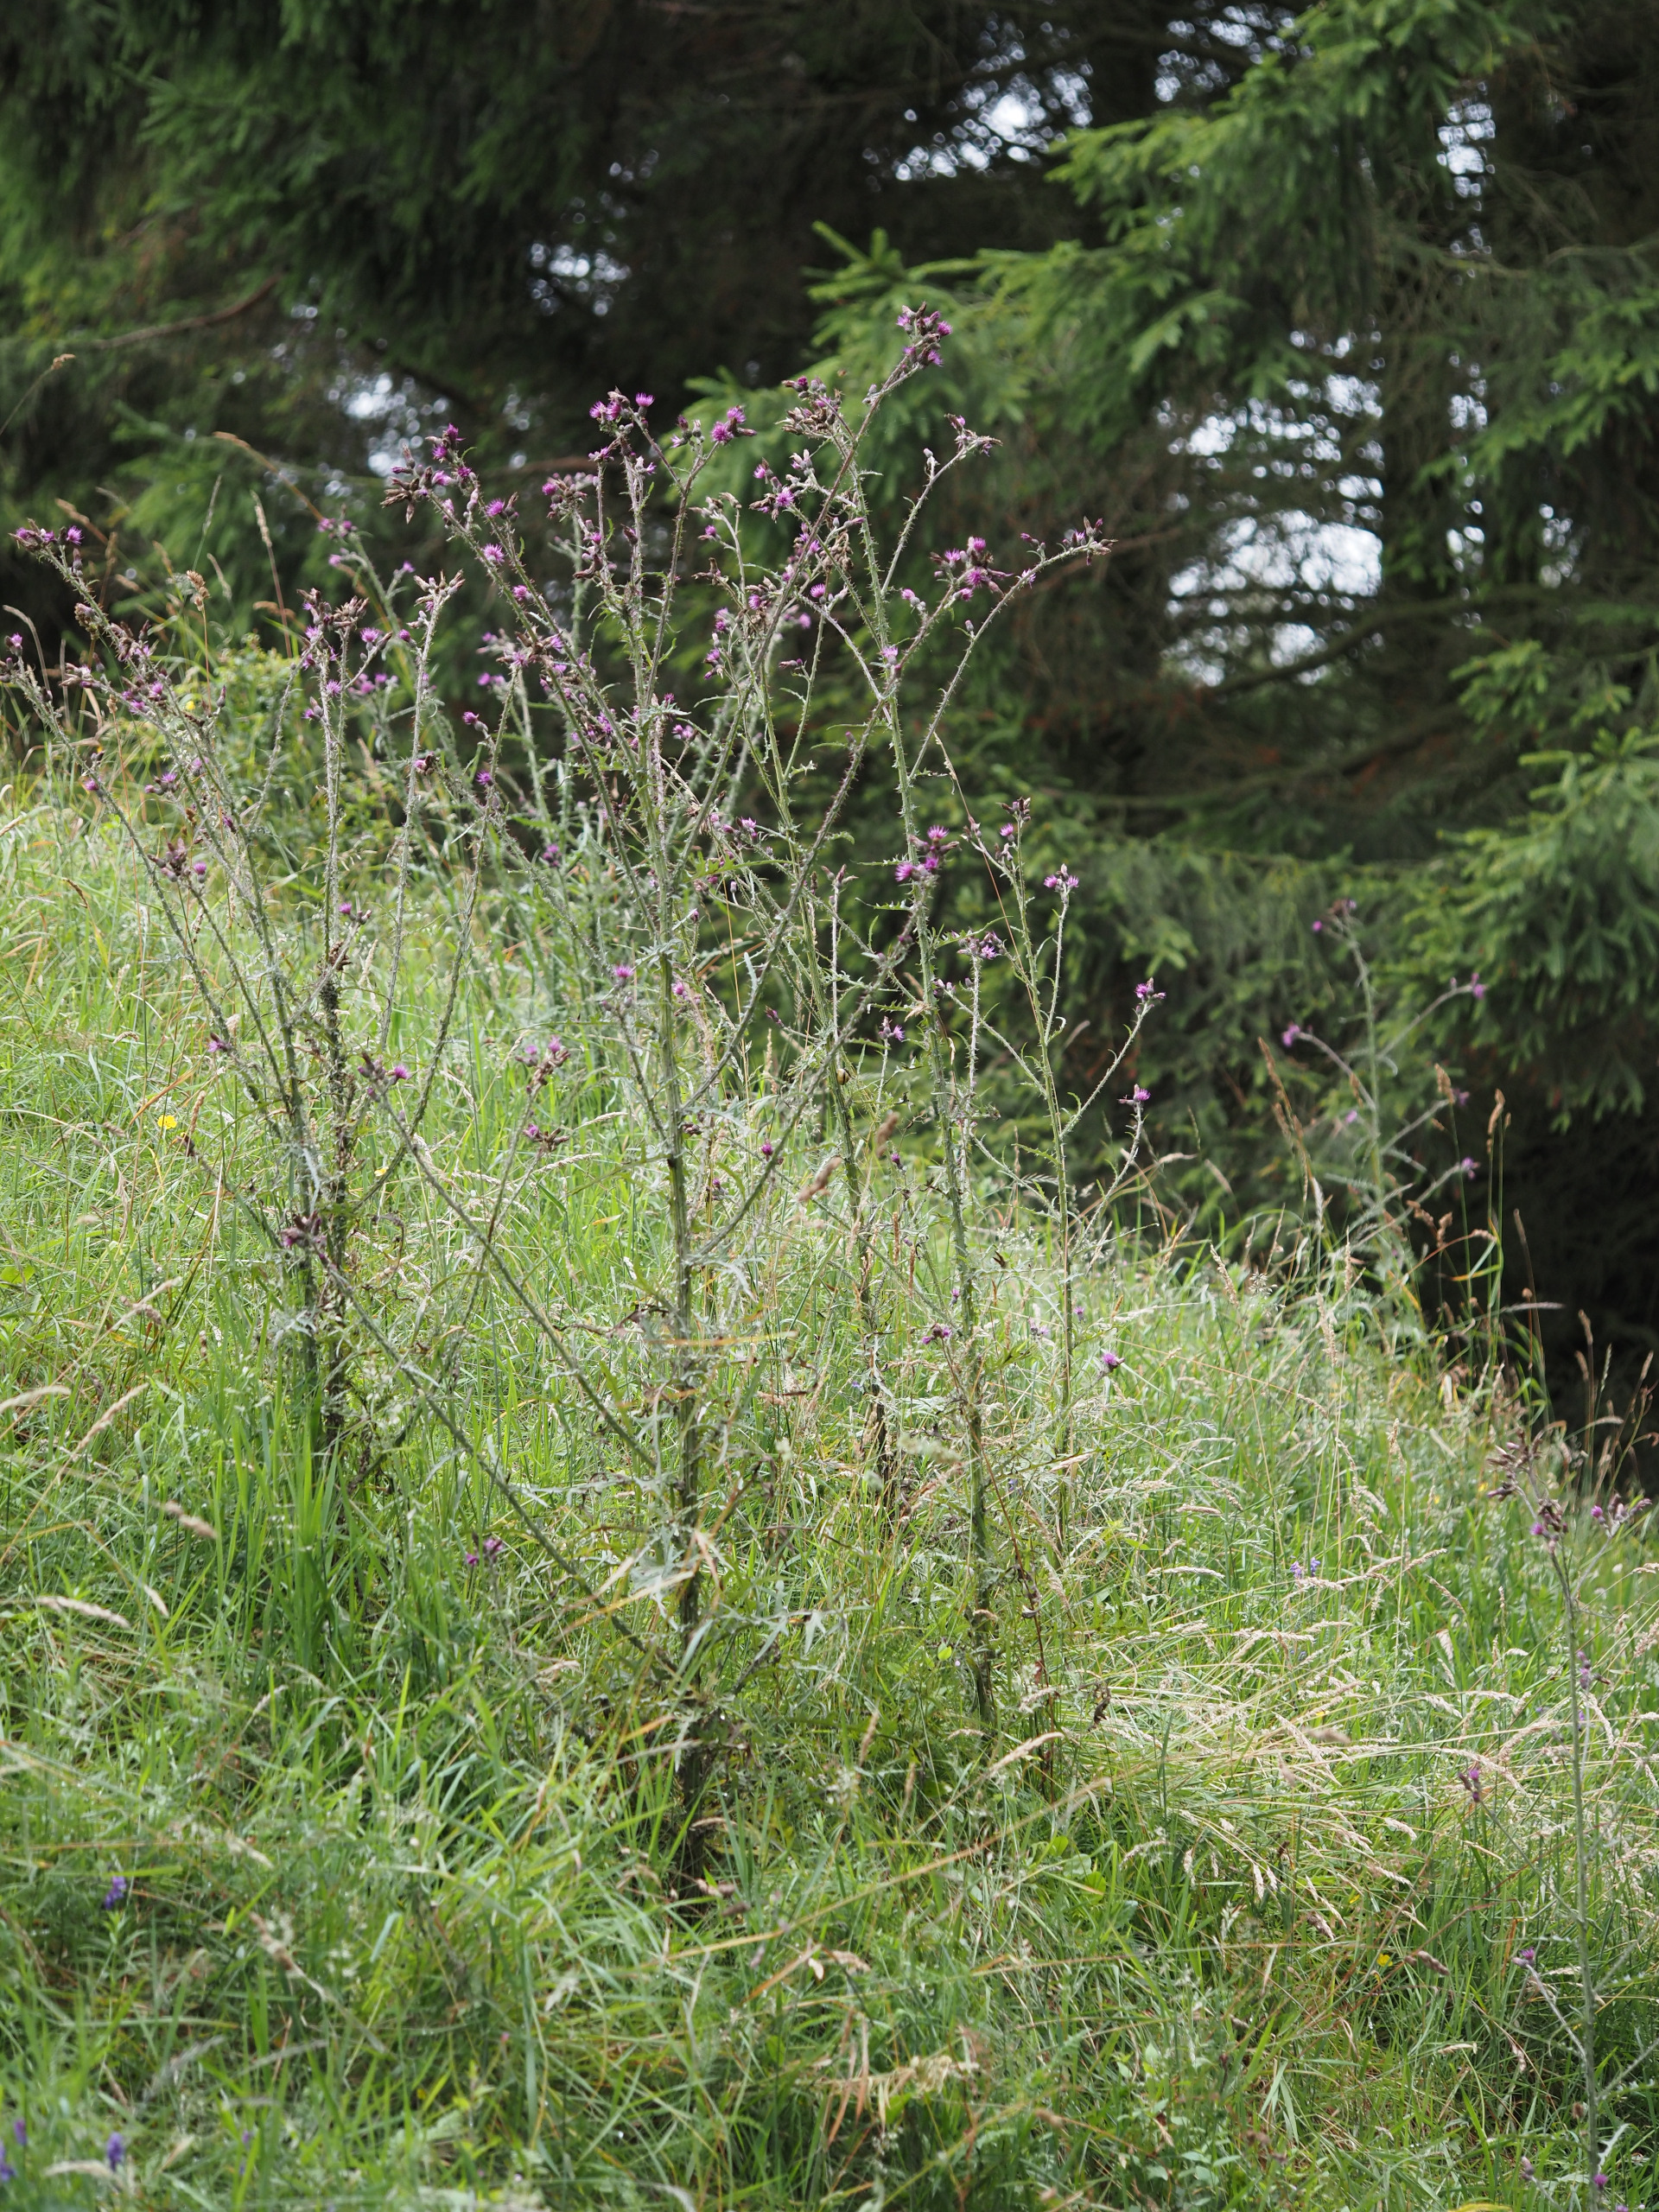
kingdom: Plantae
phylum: Tracheophyta
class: Magnoliopsida
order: Asterales
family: Asteraceae
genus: Cirsium
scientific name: Cirsium palustre
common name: Kær-tidsel
